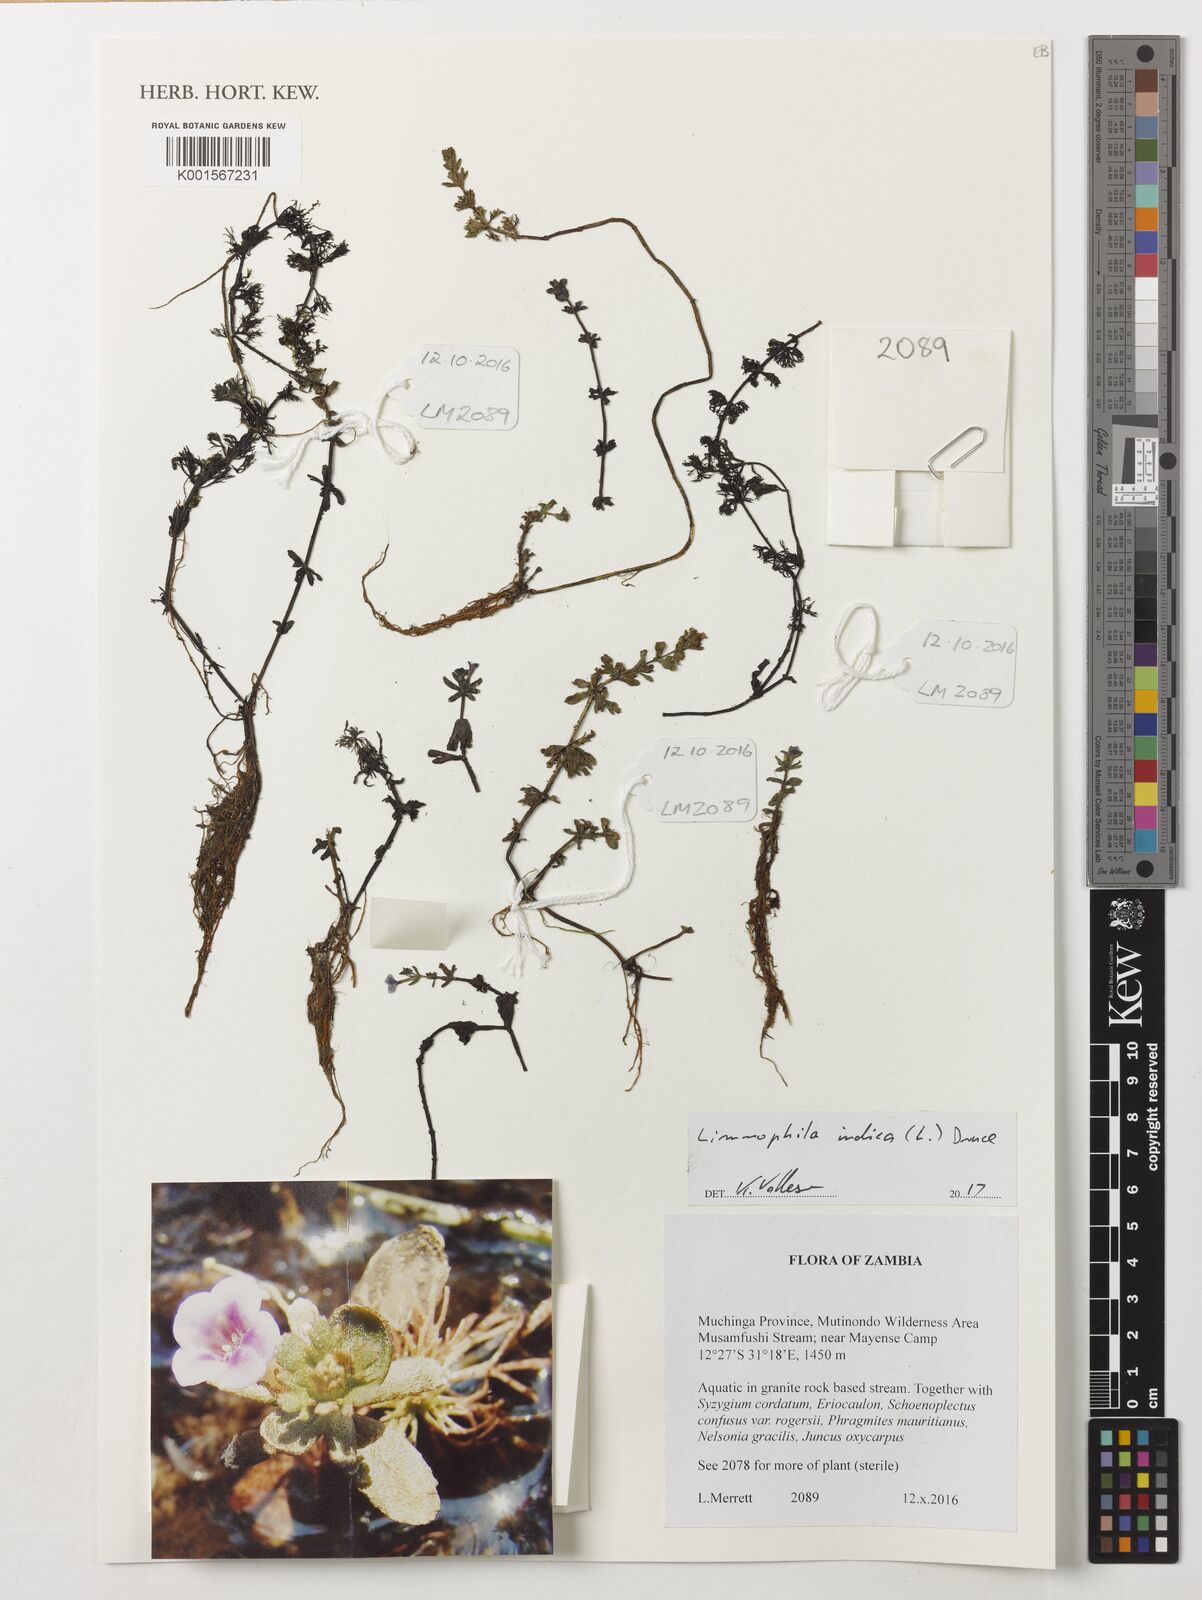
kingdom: Plantae
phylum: Tracheophyta
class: Magnoliopsida
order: Lamiales
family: Plantaginaceae
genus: Limnophila
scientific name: Limnophila indica
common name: Indian marshweed
